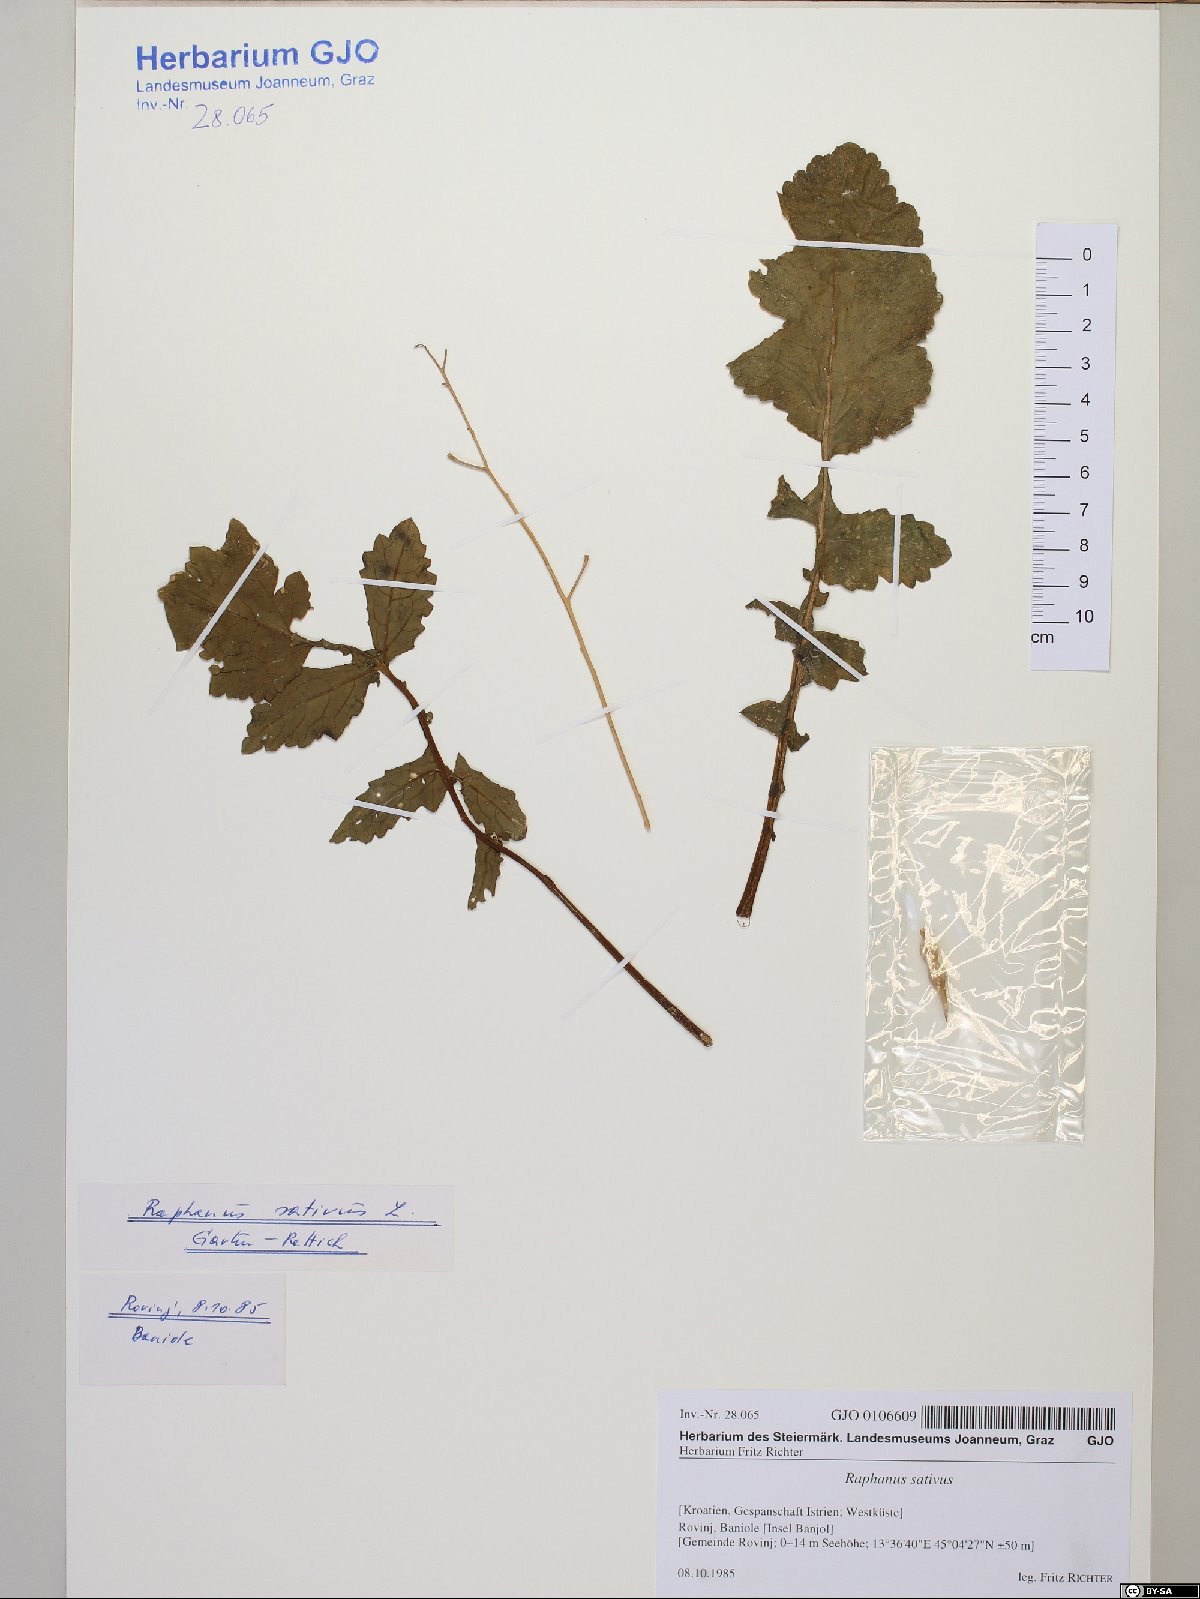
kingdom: Plantae
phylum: Tracheophyta
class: Magnoliopsida
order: Brassicales
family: Brassicaceae
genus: Raphanus
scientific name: Raphanus raphanistrum
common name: Wild radish
